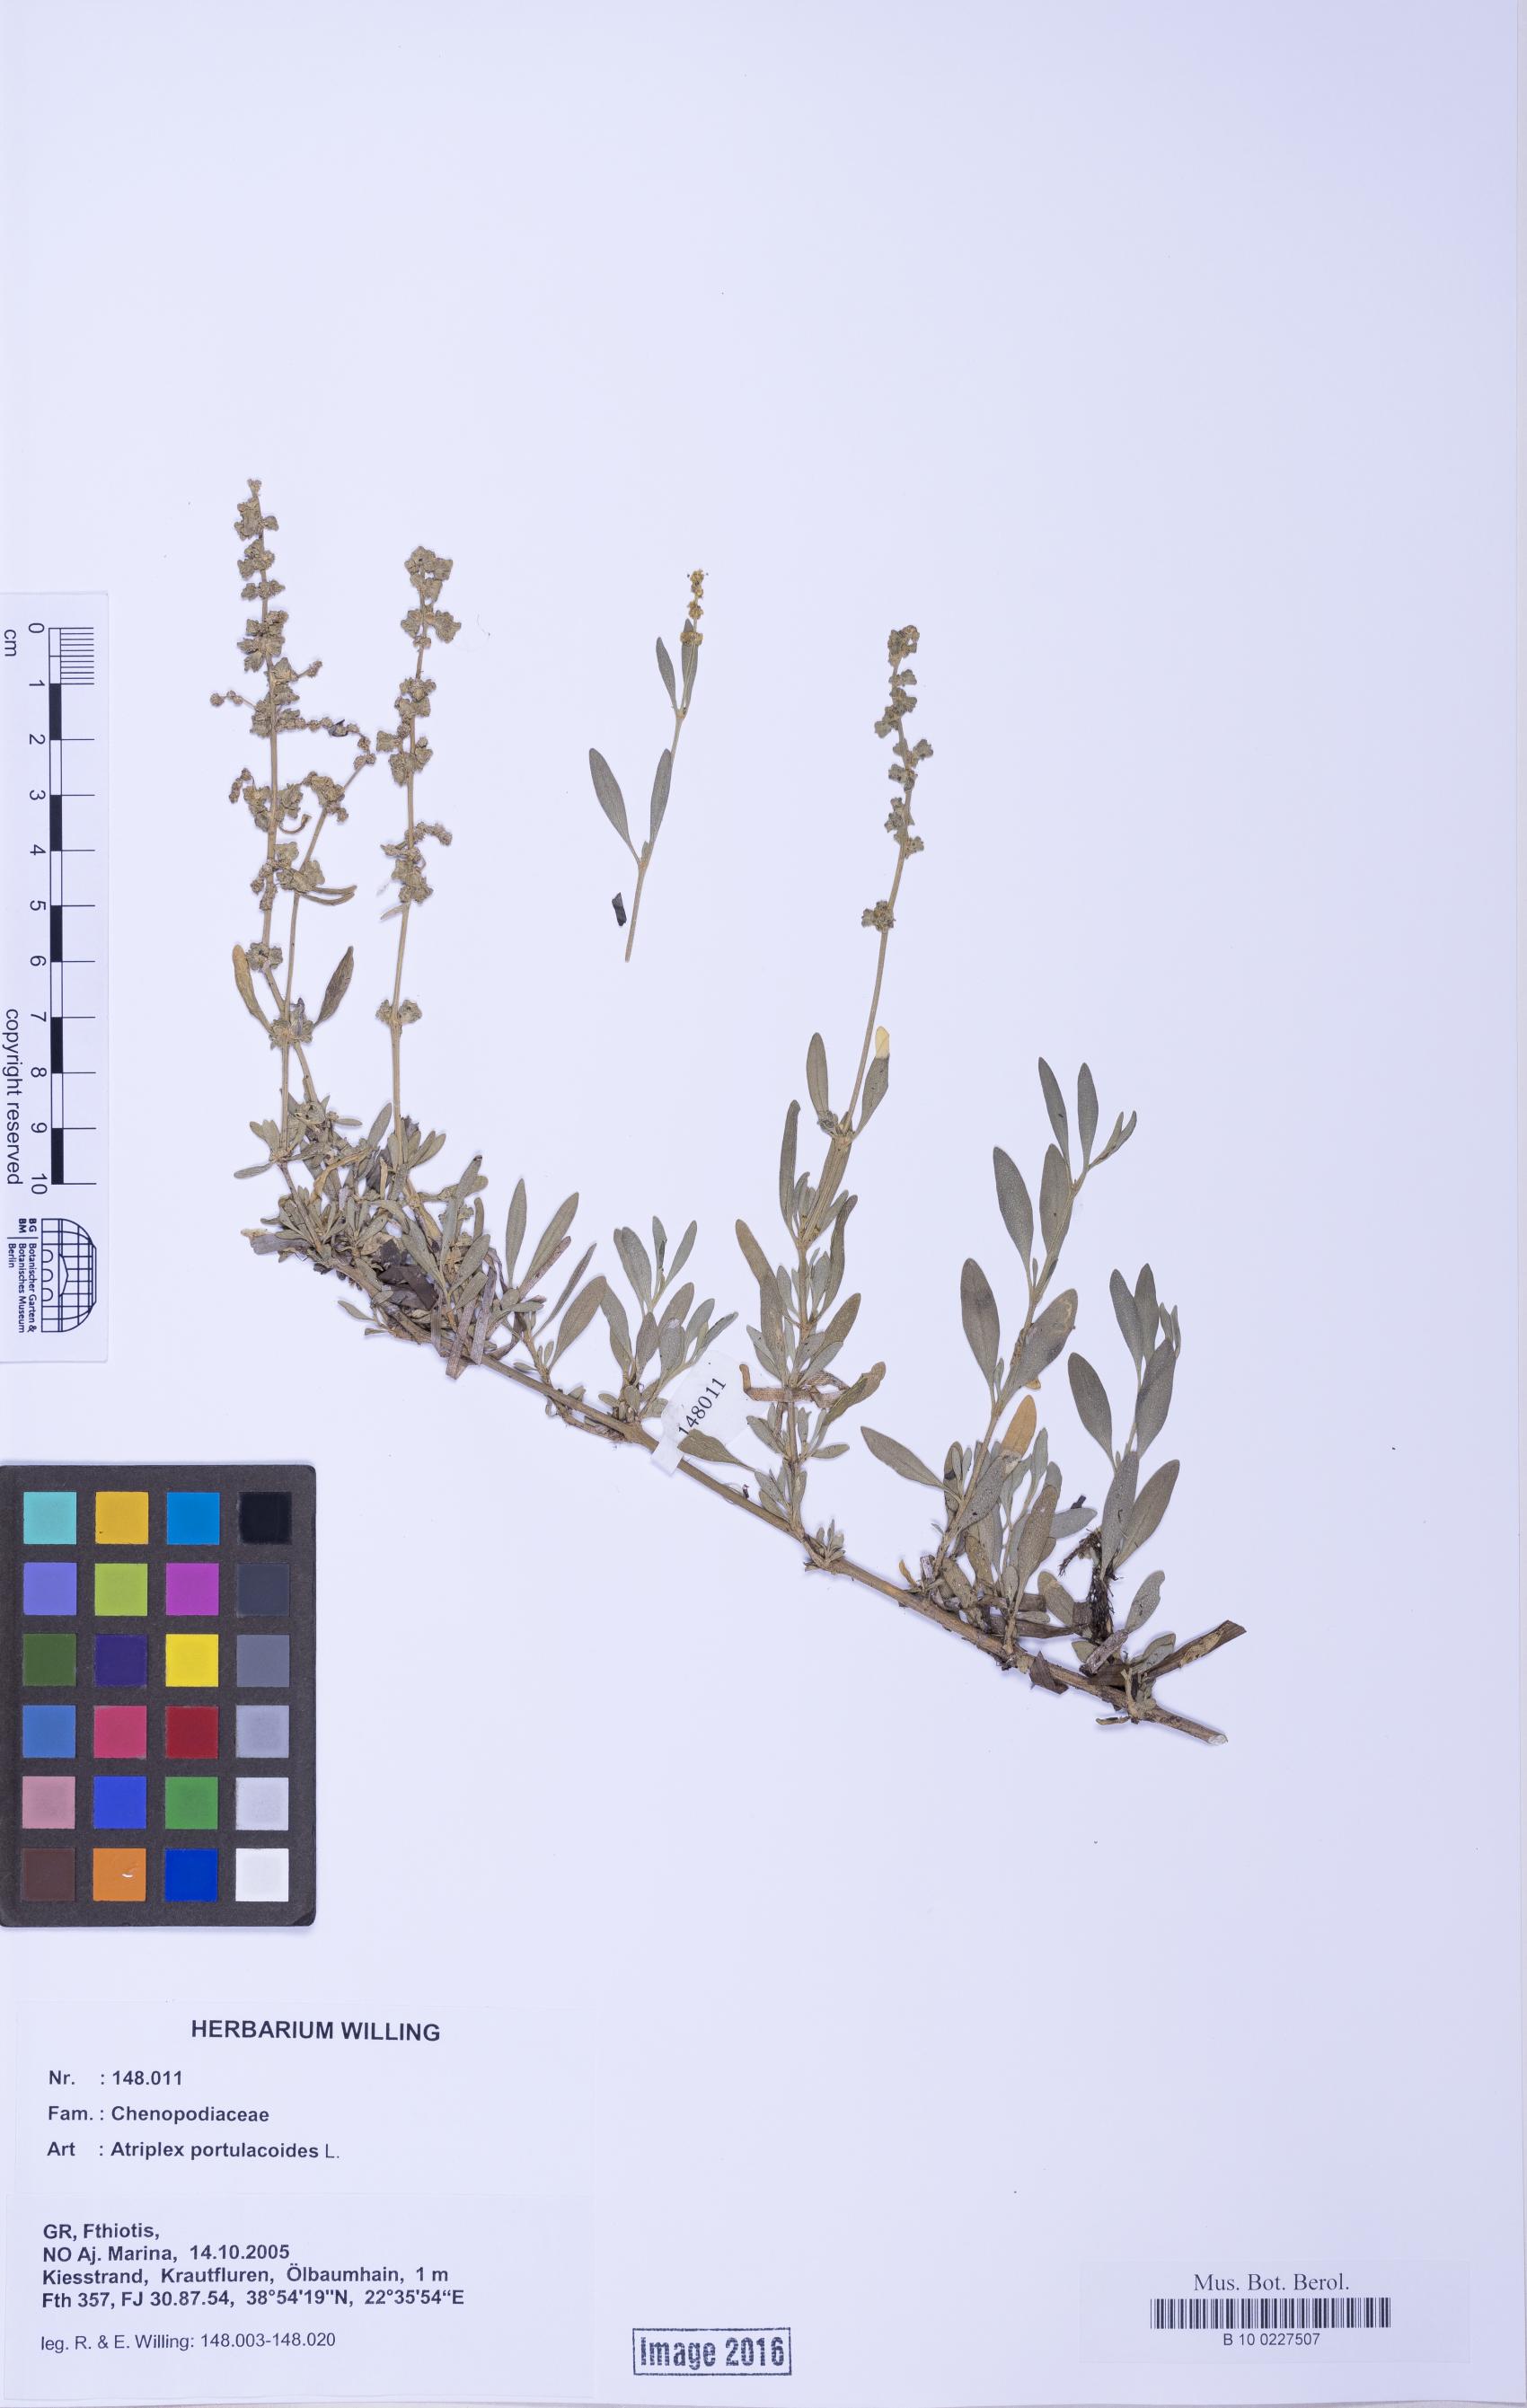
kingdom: Plantae
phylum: Tracheophyta
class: Magnoliopsida
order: Caryophyllales
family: Amaranthaceae
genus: Halimione
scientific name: Halimione portulacoides
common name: Sea-purslane
